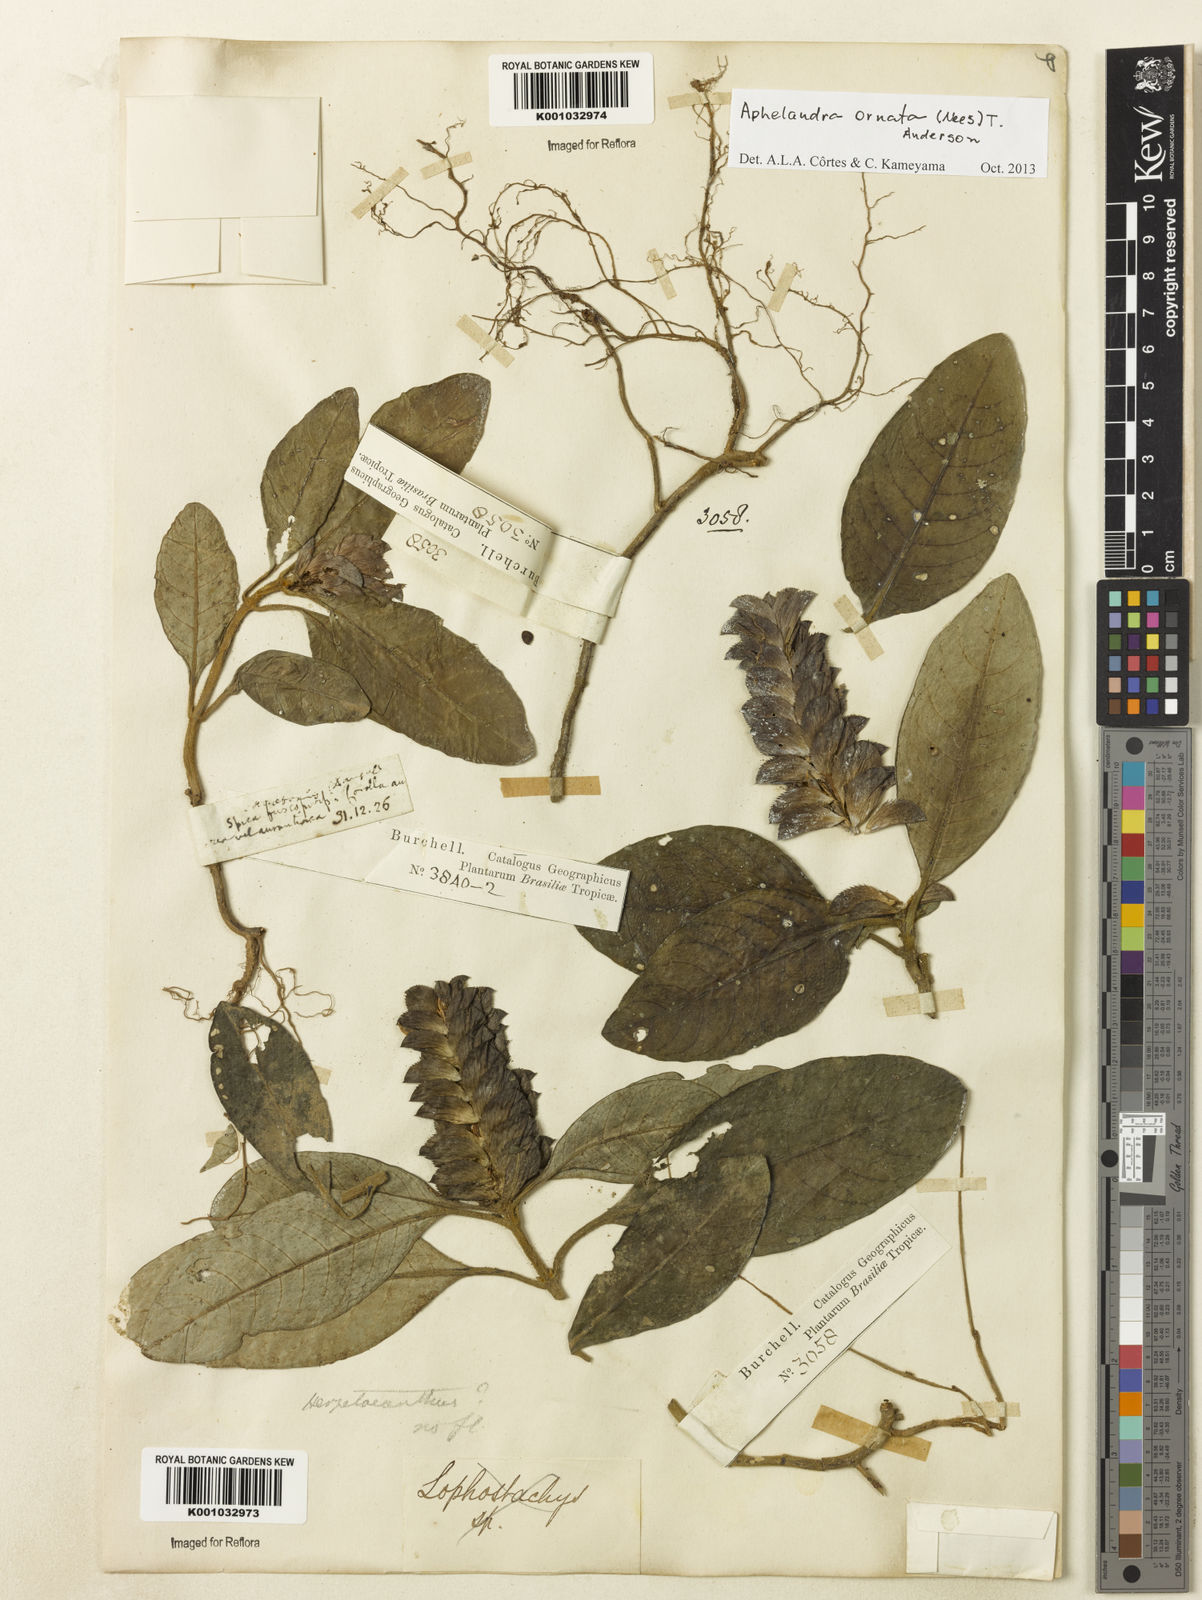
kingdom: Plantae
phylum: Tracheophyta
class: Magnoliopsida
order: Lamiales
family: Acanthaceae
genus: Aphelandra
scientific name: Aphelandra ornata
